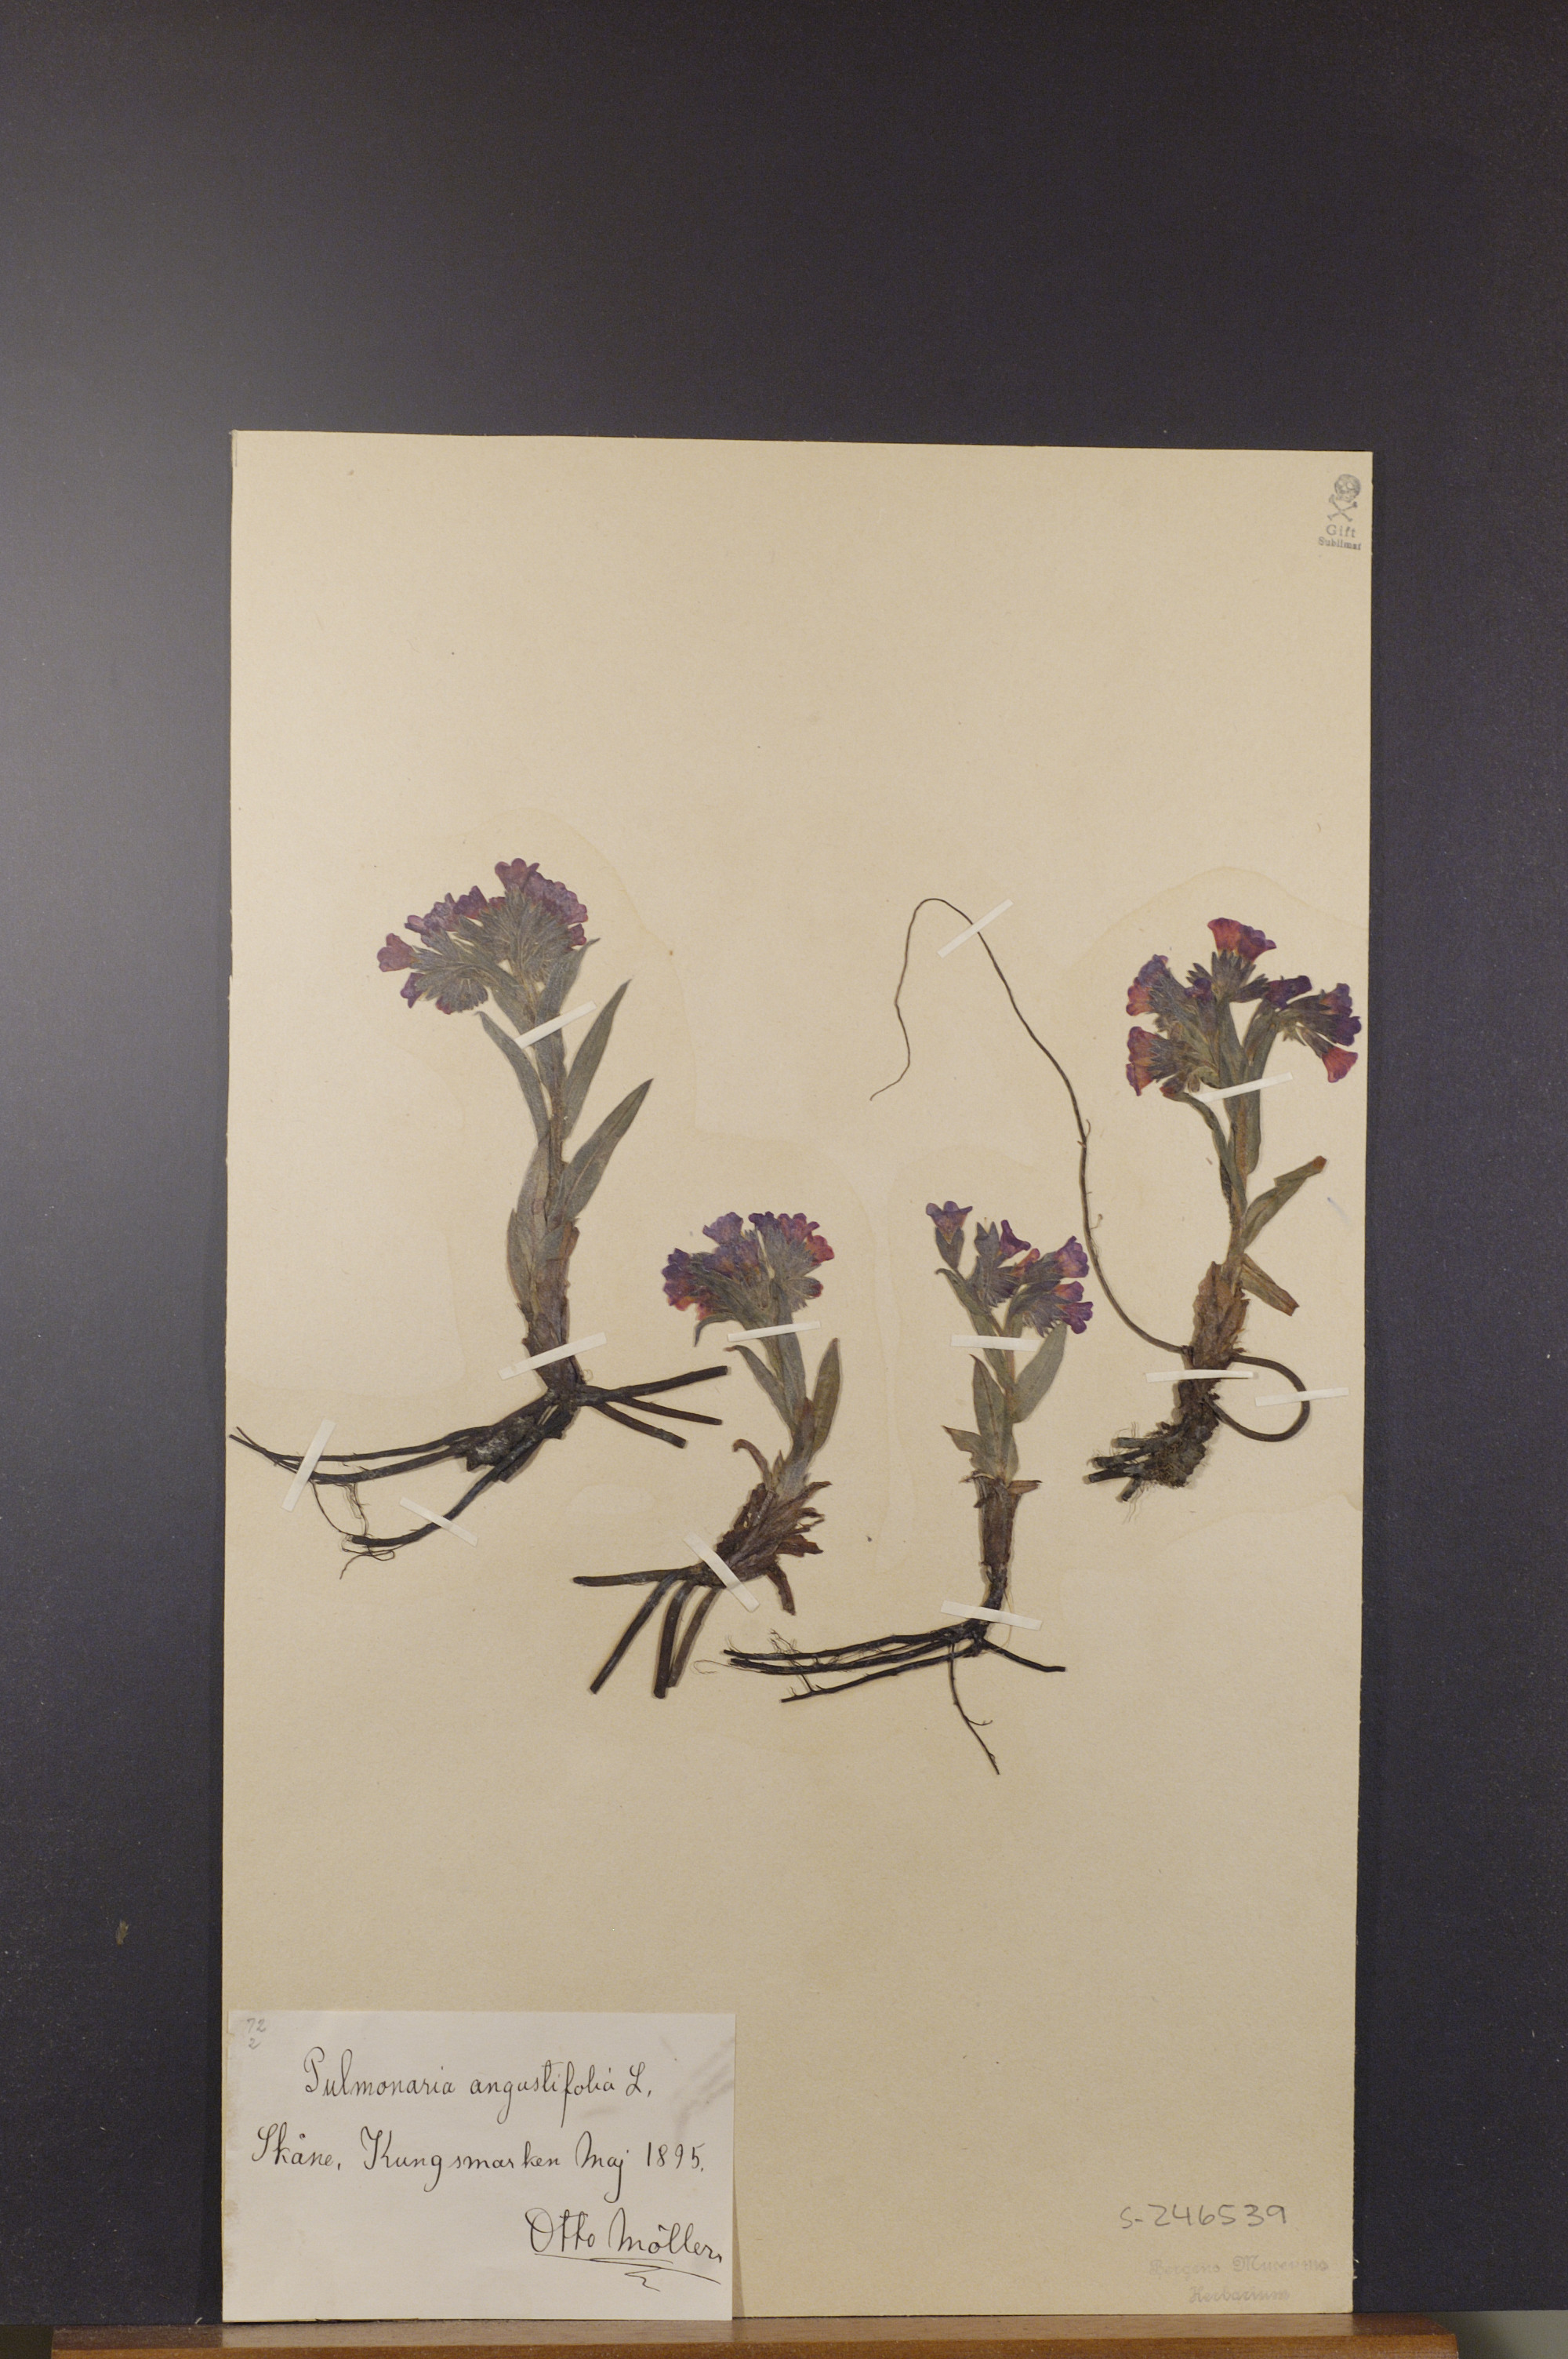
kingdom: Plantae
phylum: Tracheophyta
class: Magnoliopsida
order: Boraginales
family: Boraginaceae
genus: Pulmonaria
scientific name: Pulmonaria angustifolia
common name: Blue cowslip
